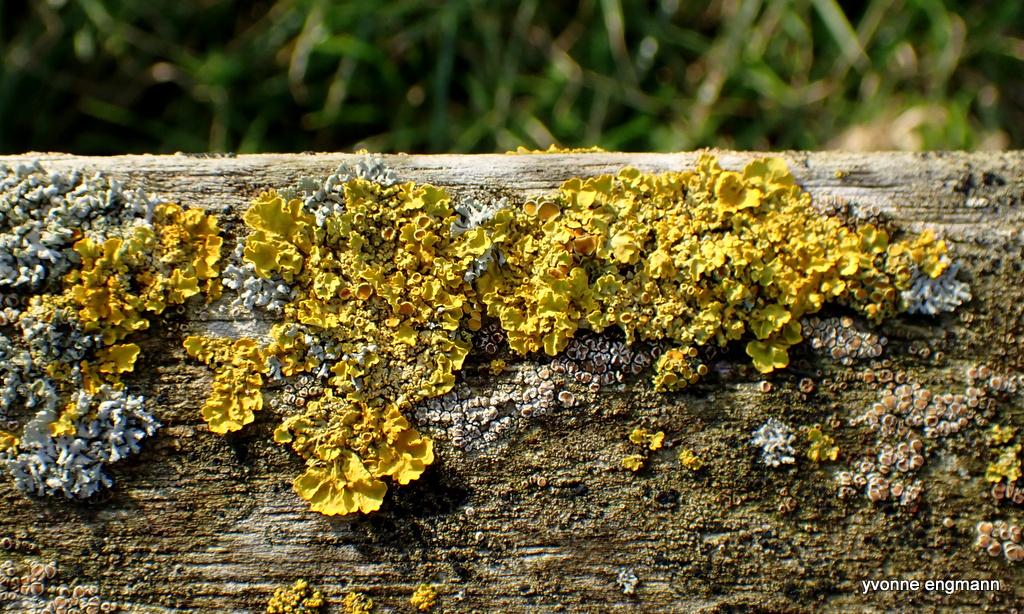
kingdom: Fungi
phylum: Ascomycota
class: Lecanoromycetes
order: Teloschistales
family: Teloschistaceae
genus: Xanthoria
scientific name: Xanthoria parietina
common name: almindelig væggelav
